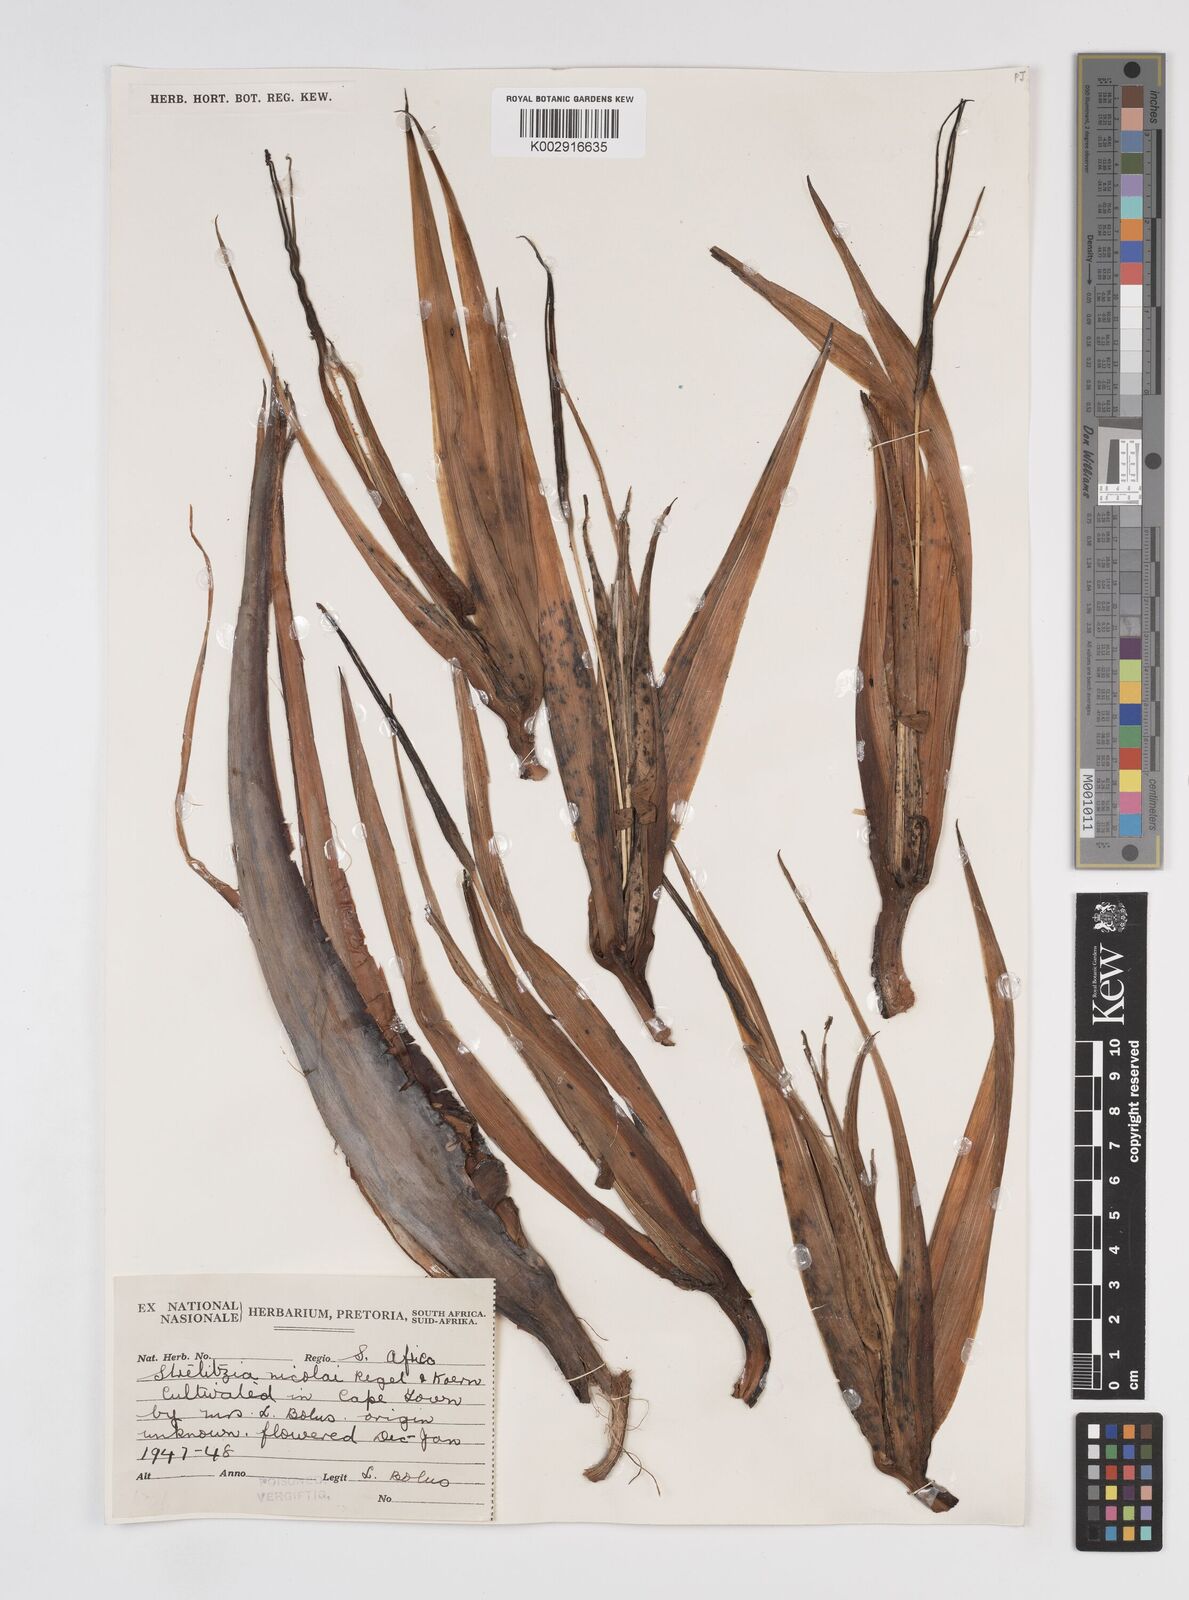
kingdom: Plantae
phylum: Tracheophyta
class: Liliopsida
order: Zingiberales
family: Strelitziaceae
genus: Strelitzia
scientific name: Strelitzia nicolai
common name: Bird-of-paradise tree
